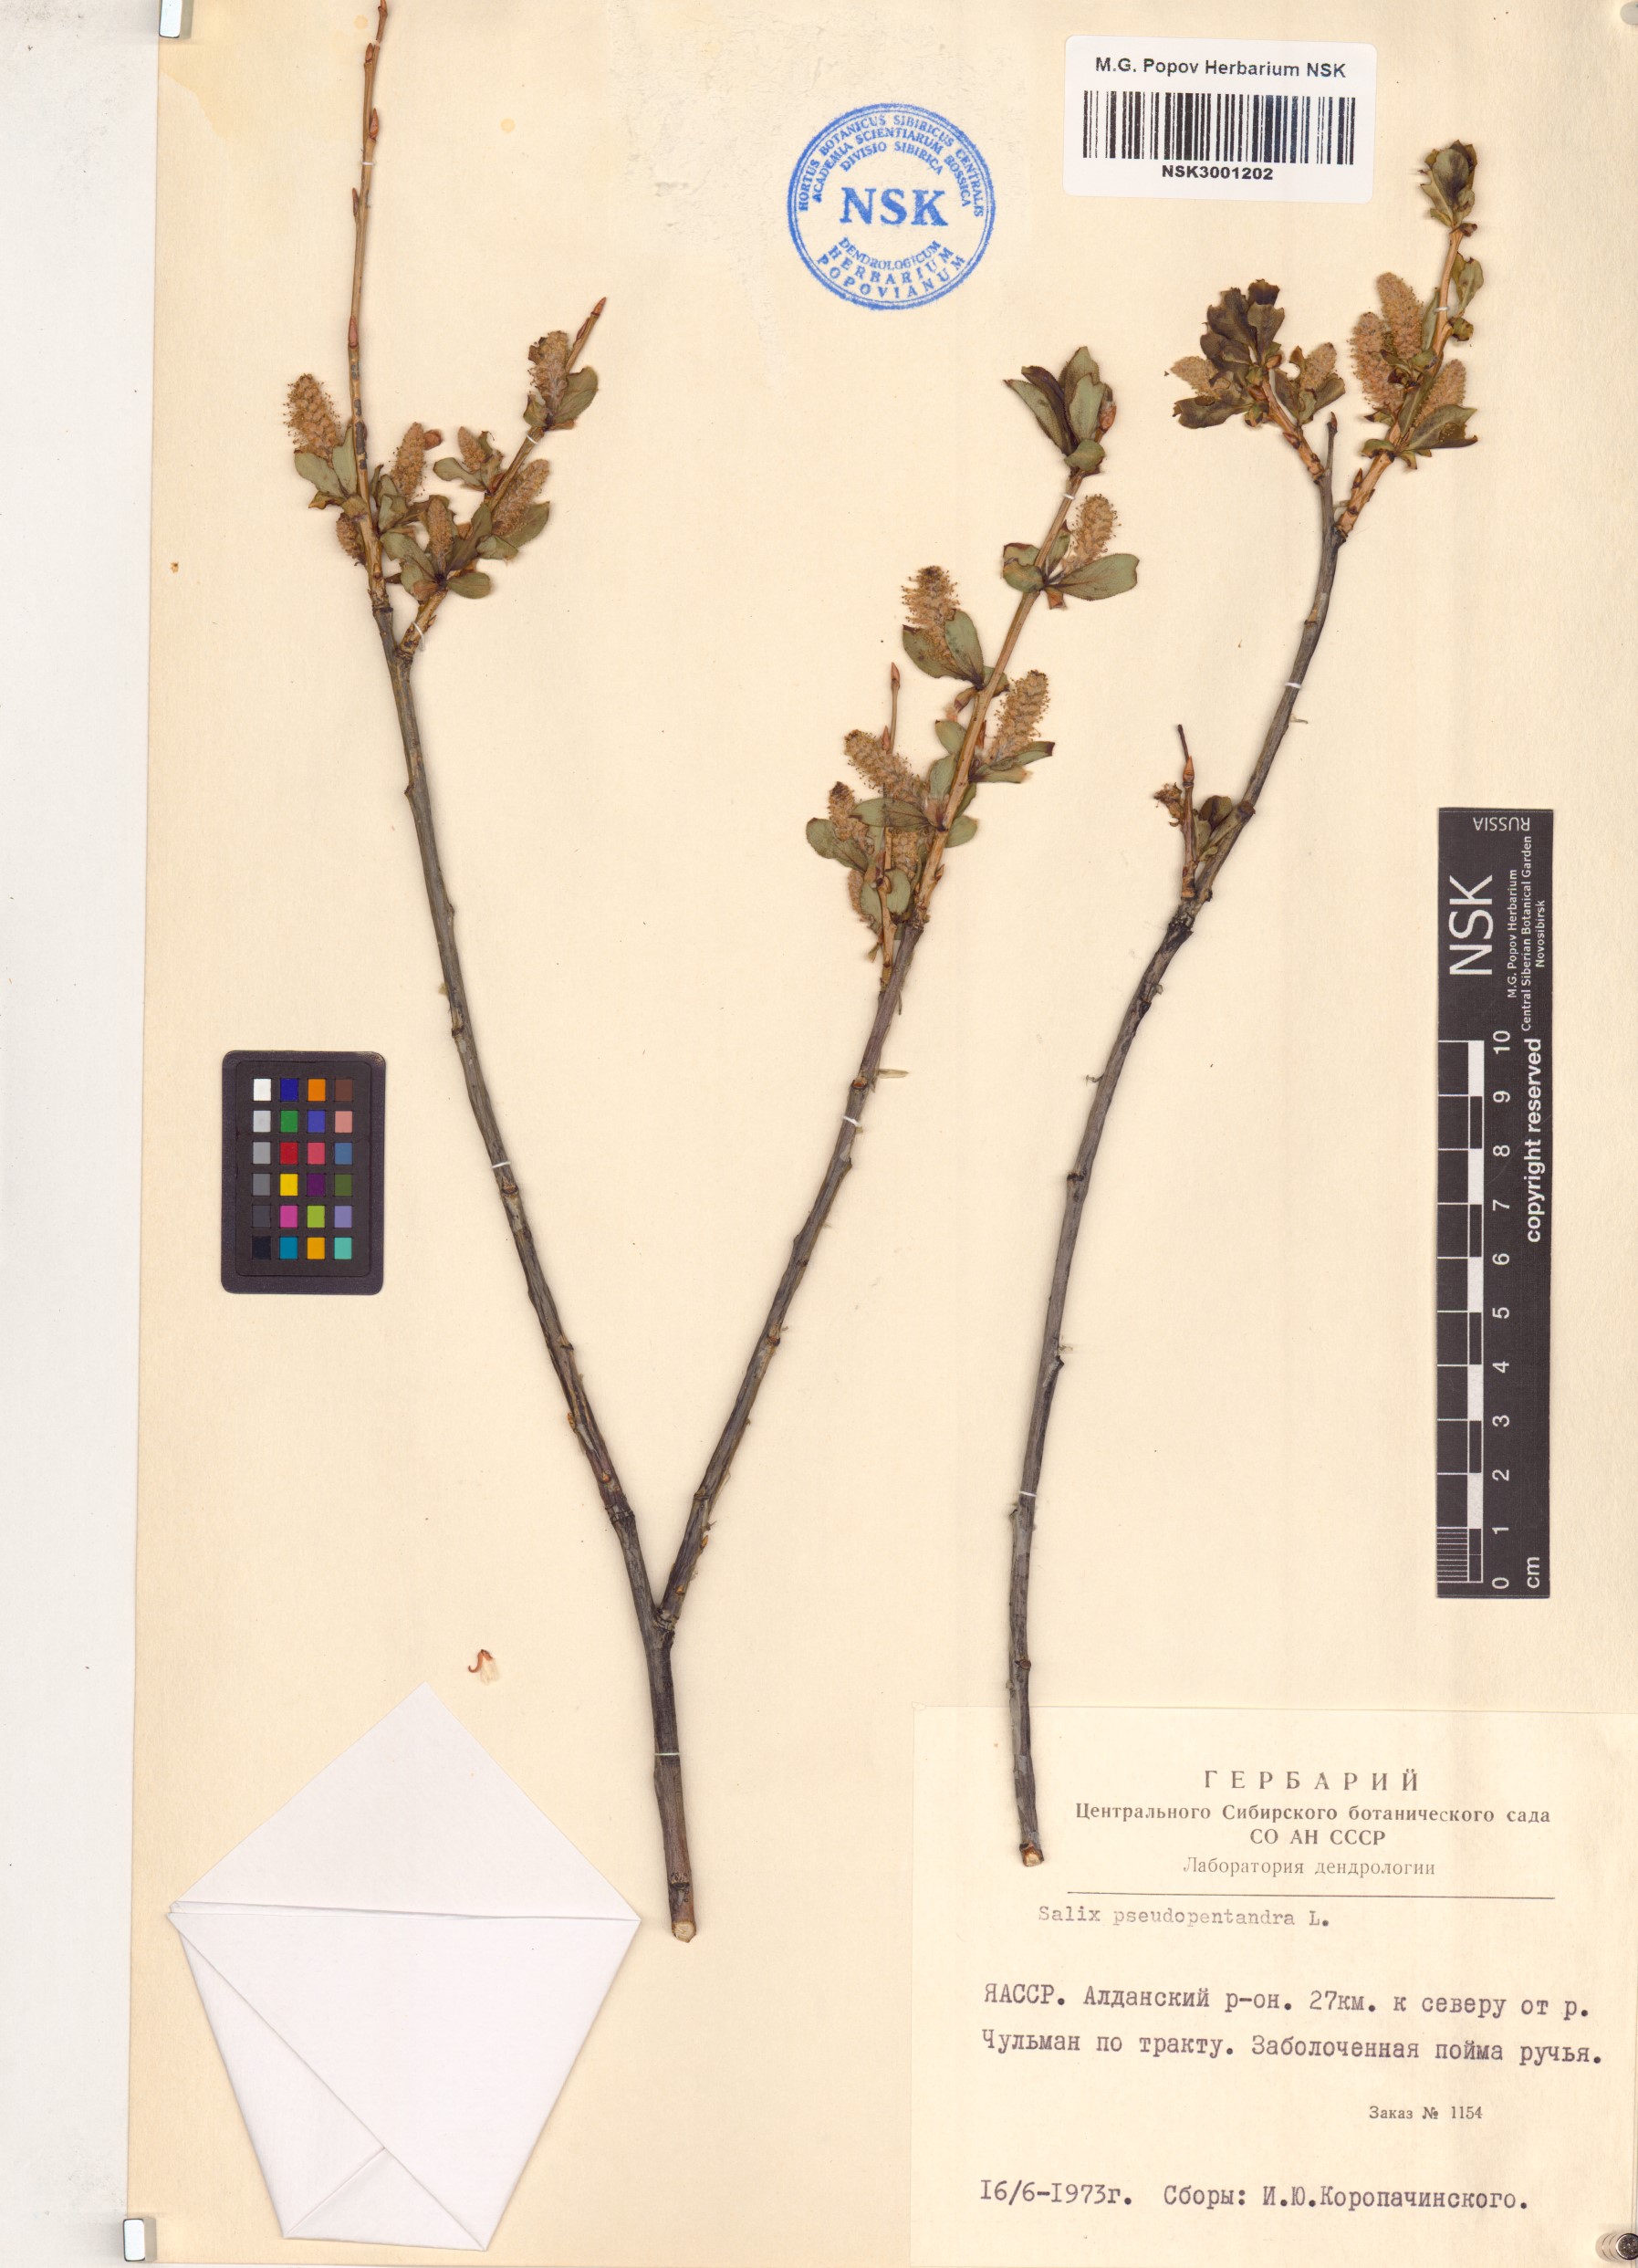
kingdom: Plantae
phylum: Tracheophyta
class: Magnoliopsida
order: Malpighiales
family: Salicaceae
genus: Salix
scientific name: Salix pseudopentandra
